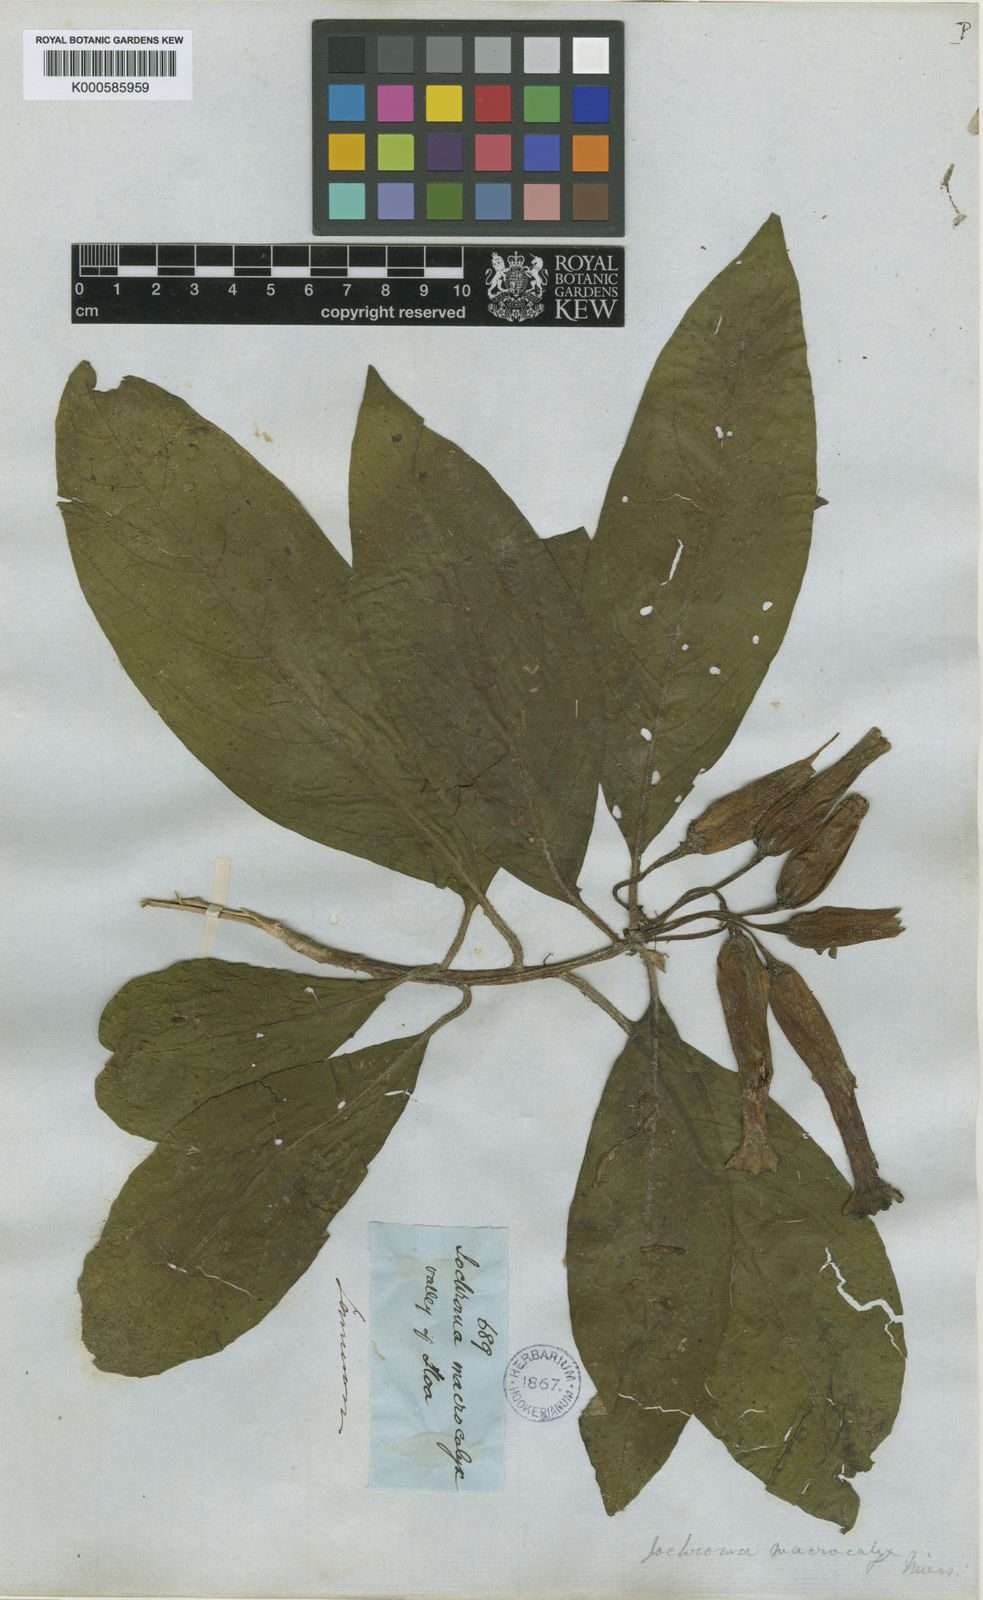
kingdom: Plantae
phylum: Tracheophyta
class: Magnoliopsida
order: Solanales
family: Solanaceae
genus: Iochroma
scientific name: Iochroma calycinum
